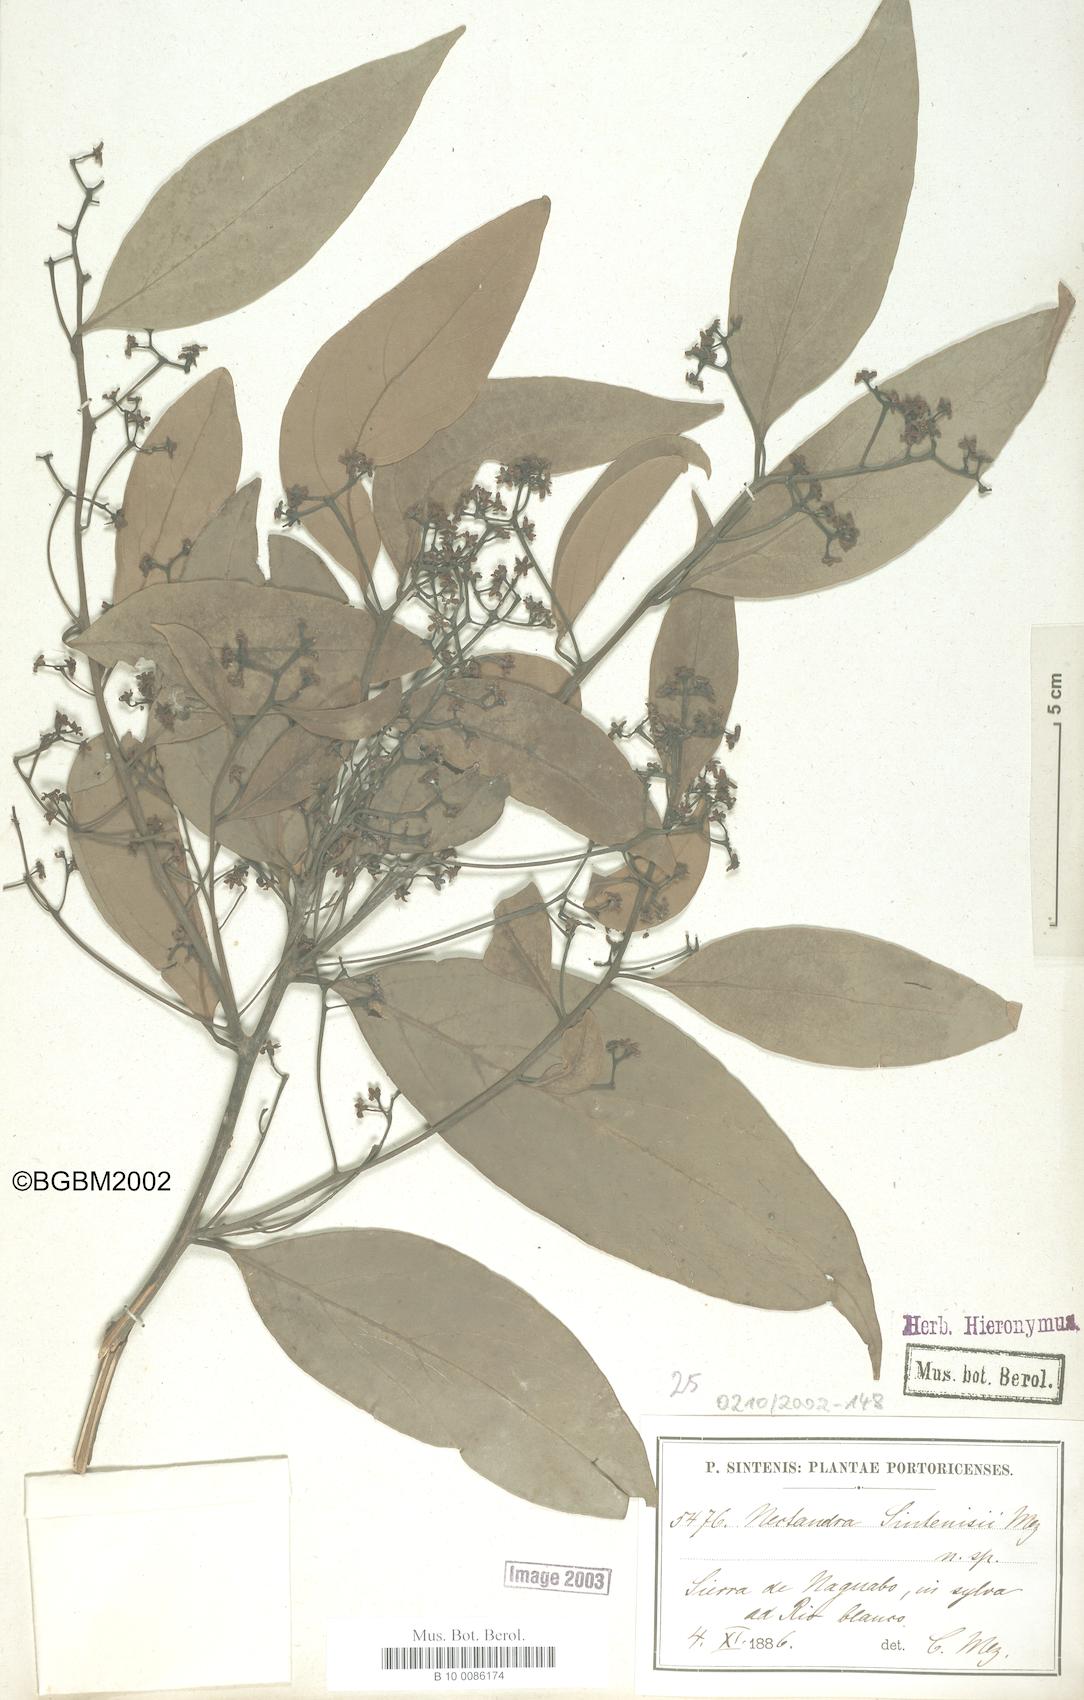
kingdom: Plantae
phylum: Tracheophyta
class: Magnoliopsida
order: Laurales
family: Lauraceae
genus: Nectandra
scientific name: Nectandra turbacensis
